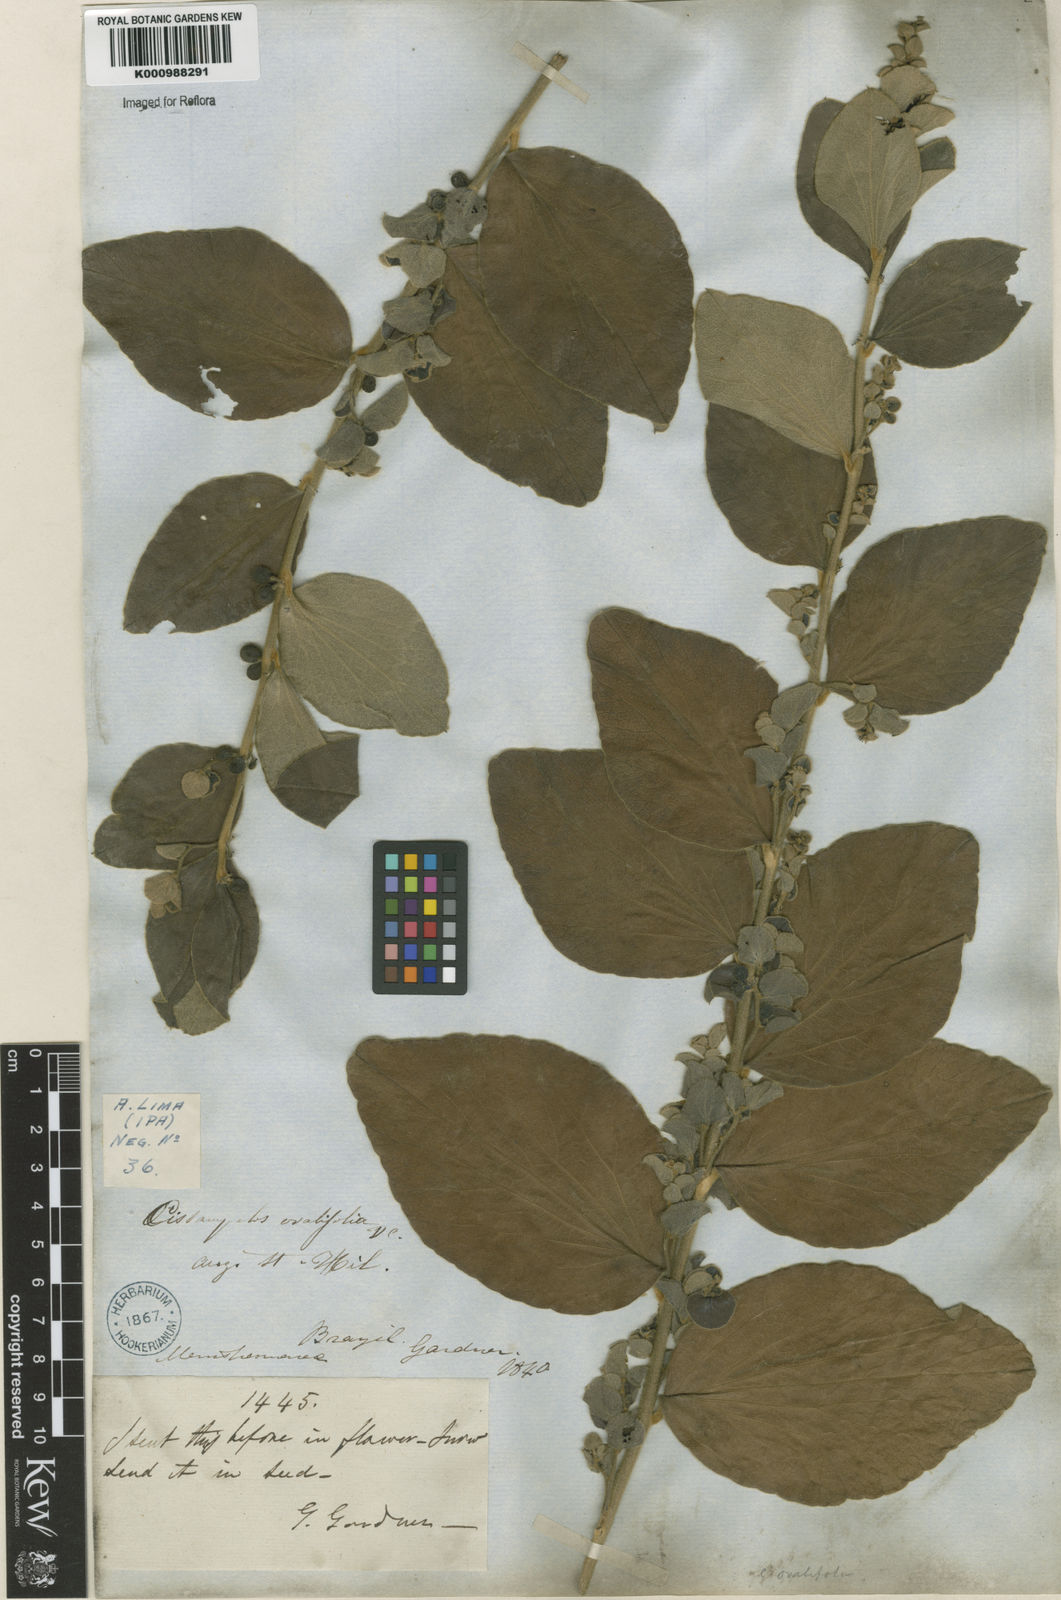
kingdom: Plantae
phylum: Tracheophyta
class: Magnoliopsida
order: Ranunculales
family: Menispermaceae
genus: Cissampelos
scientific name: Cissampelos ovalifolia
